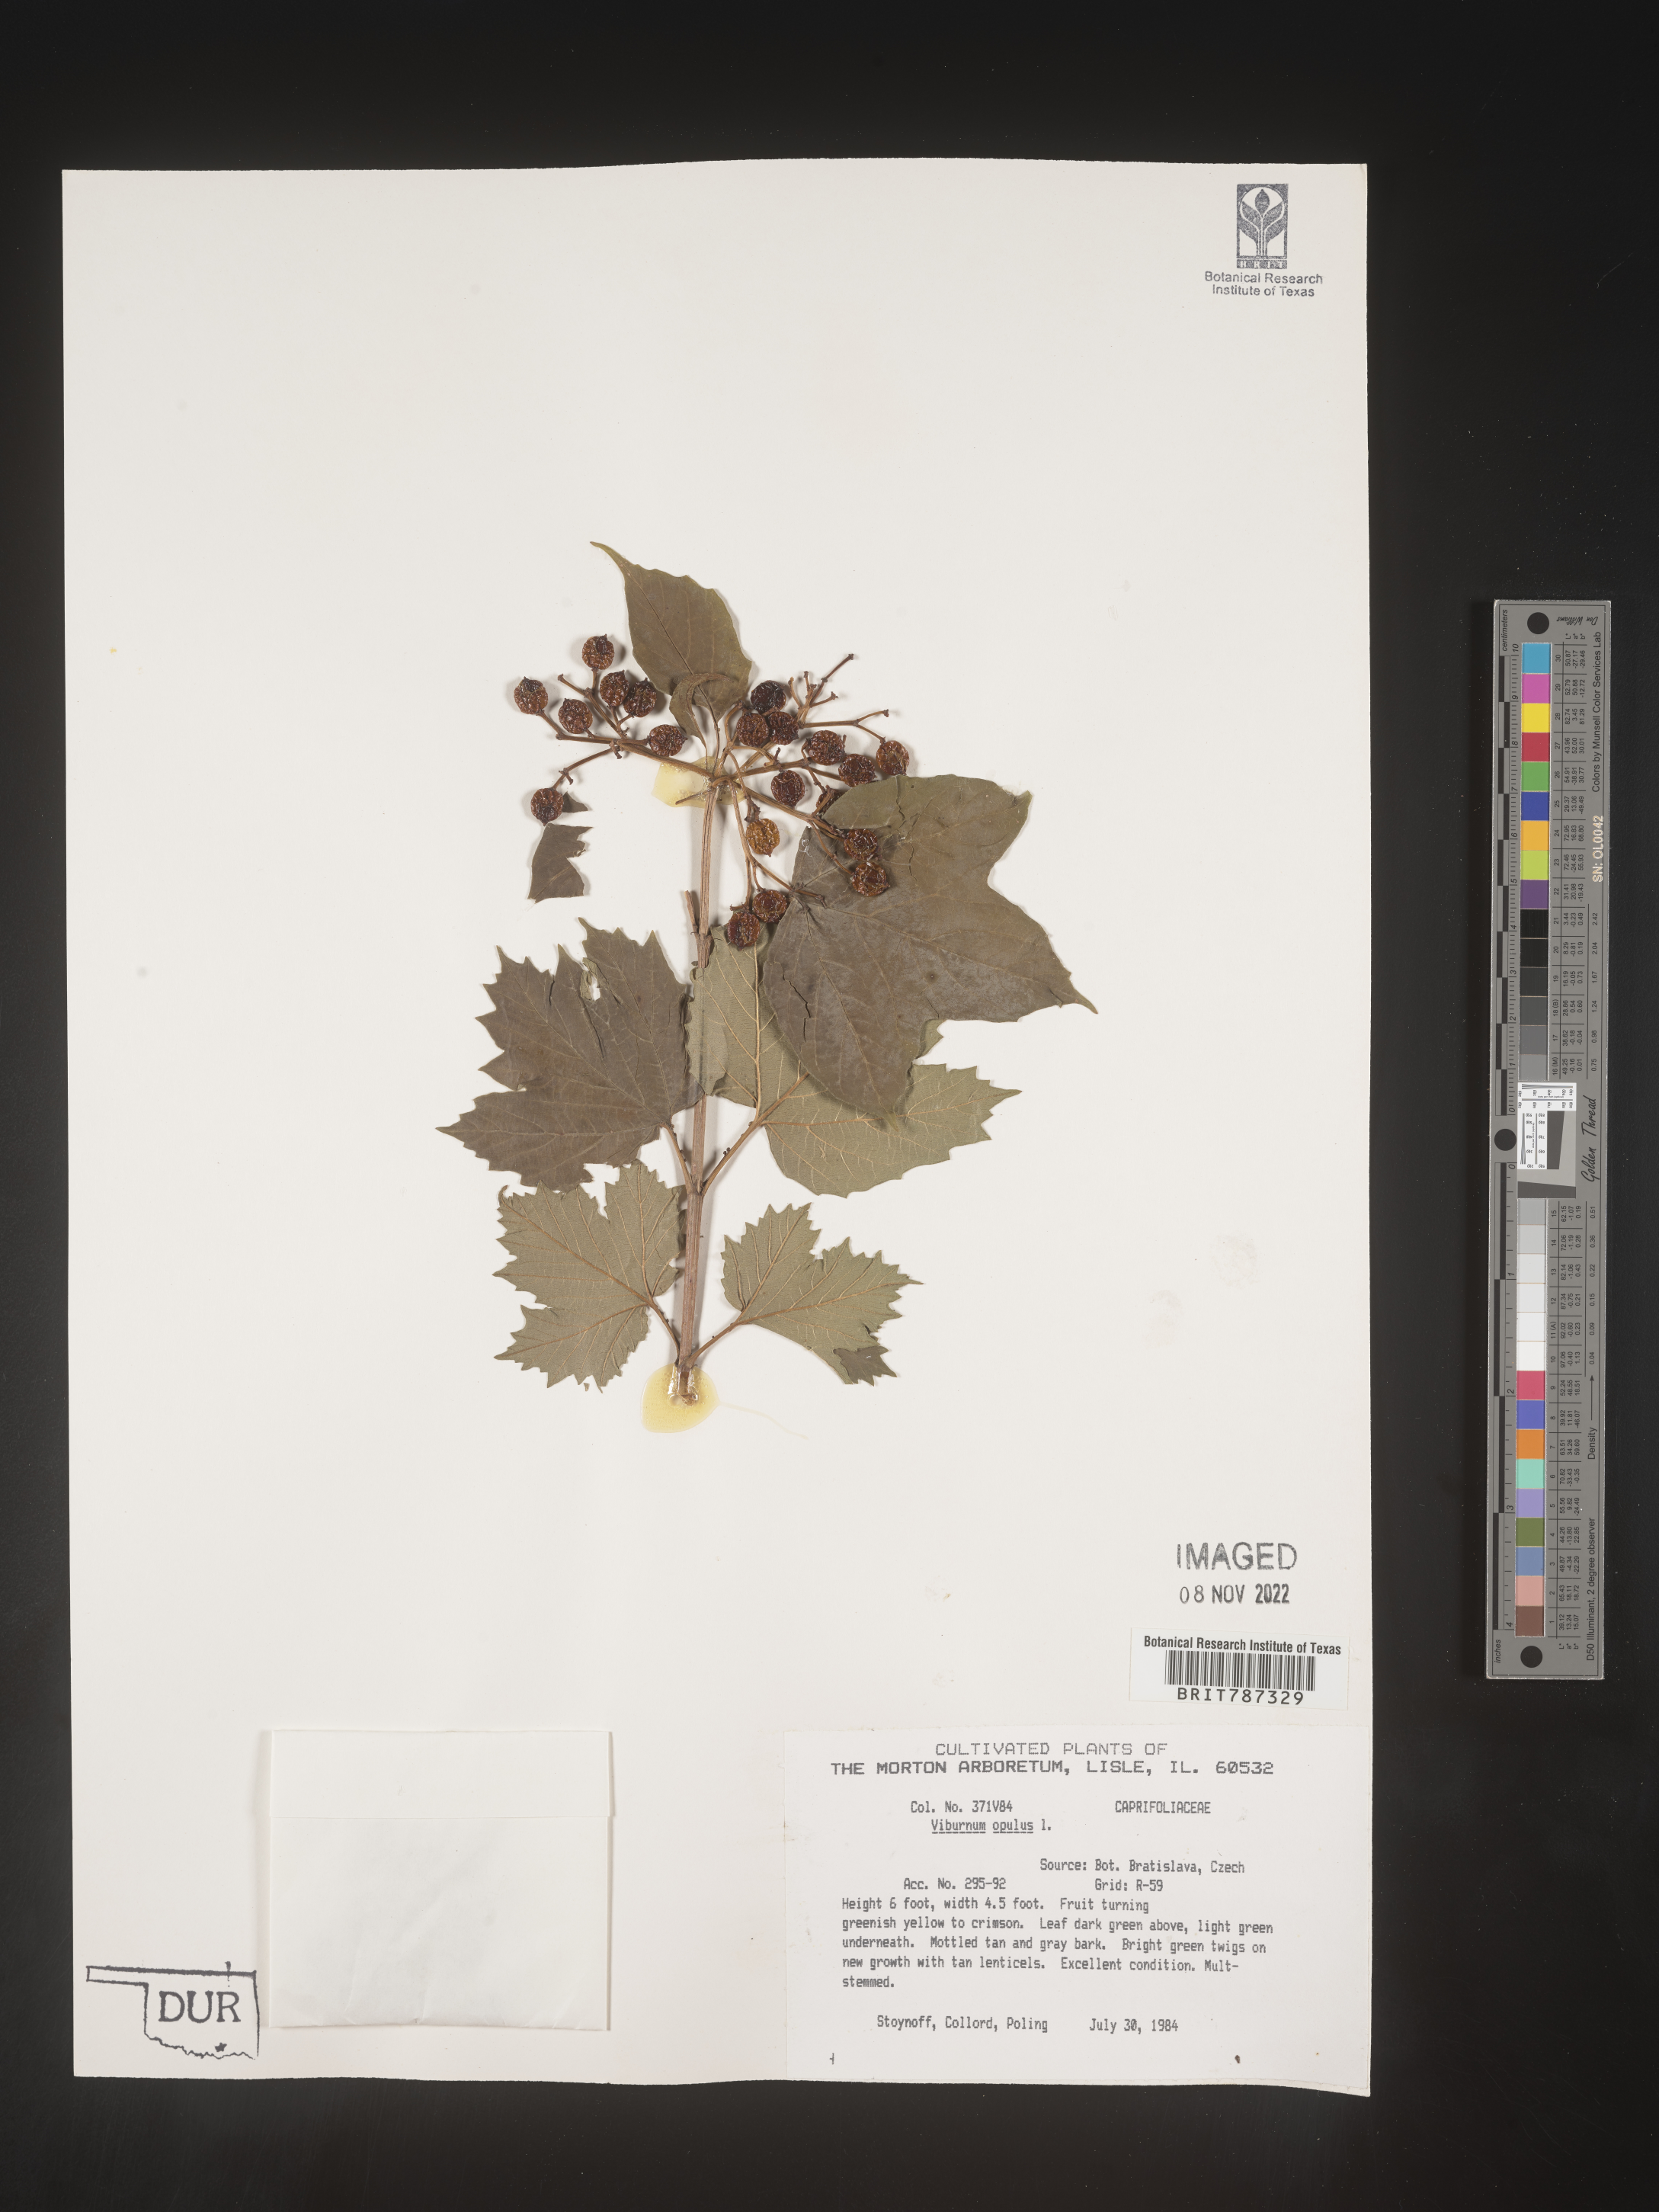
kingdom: Plantae
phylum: Tracheophyta
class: Magnoliopsida
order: Dipsacales
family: Viburnaceae
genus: Viburnum
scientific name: Viburnum
